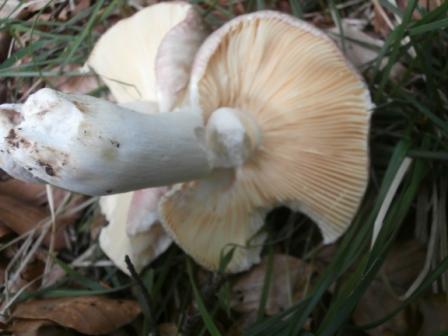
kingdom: Fungi
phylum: Basidiomycota
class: Agaricomycetes
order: Russulales
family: Russulaceae
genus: Russula
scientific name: Russula romellii
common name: romells skørhat
